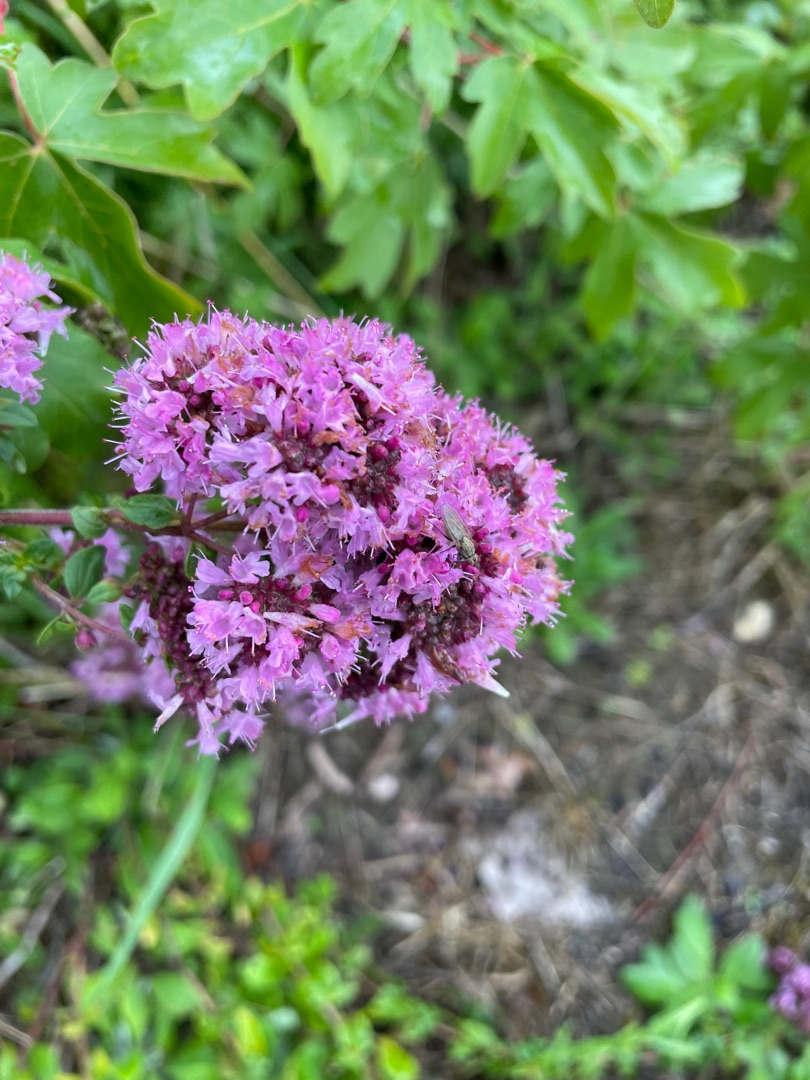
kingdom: Plantae
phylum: Tracheophyta
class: Magnoliopsida
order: Lamiales
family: Lamiaceae
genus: Origanum
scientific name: Origanum vulgare
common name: Merian
